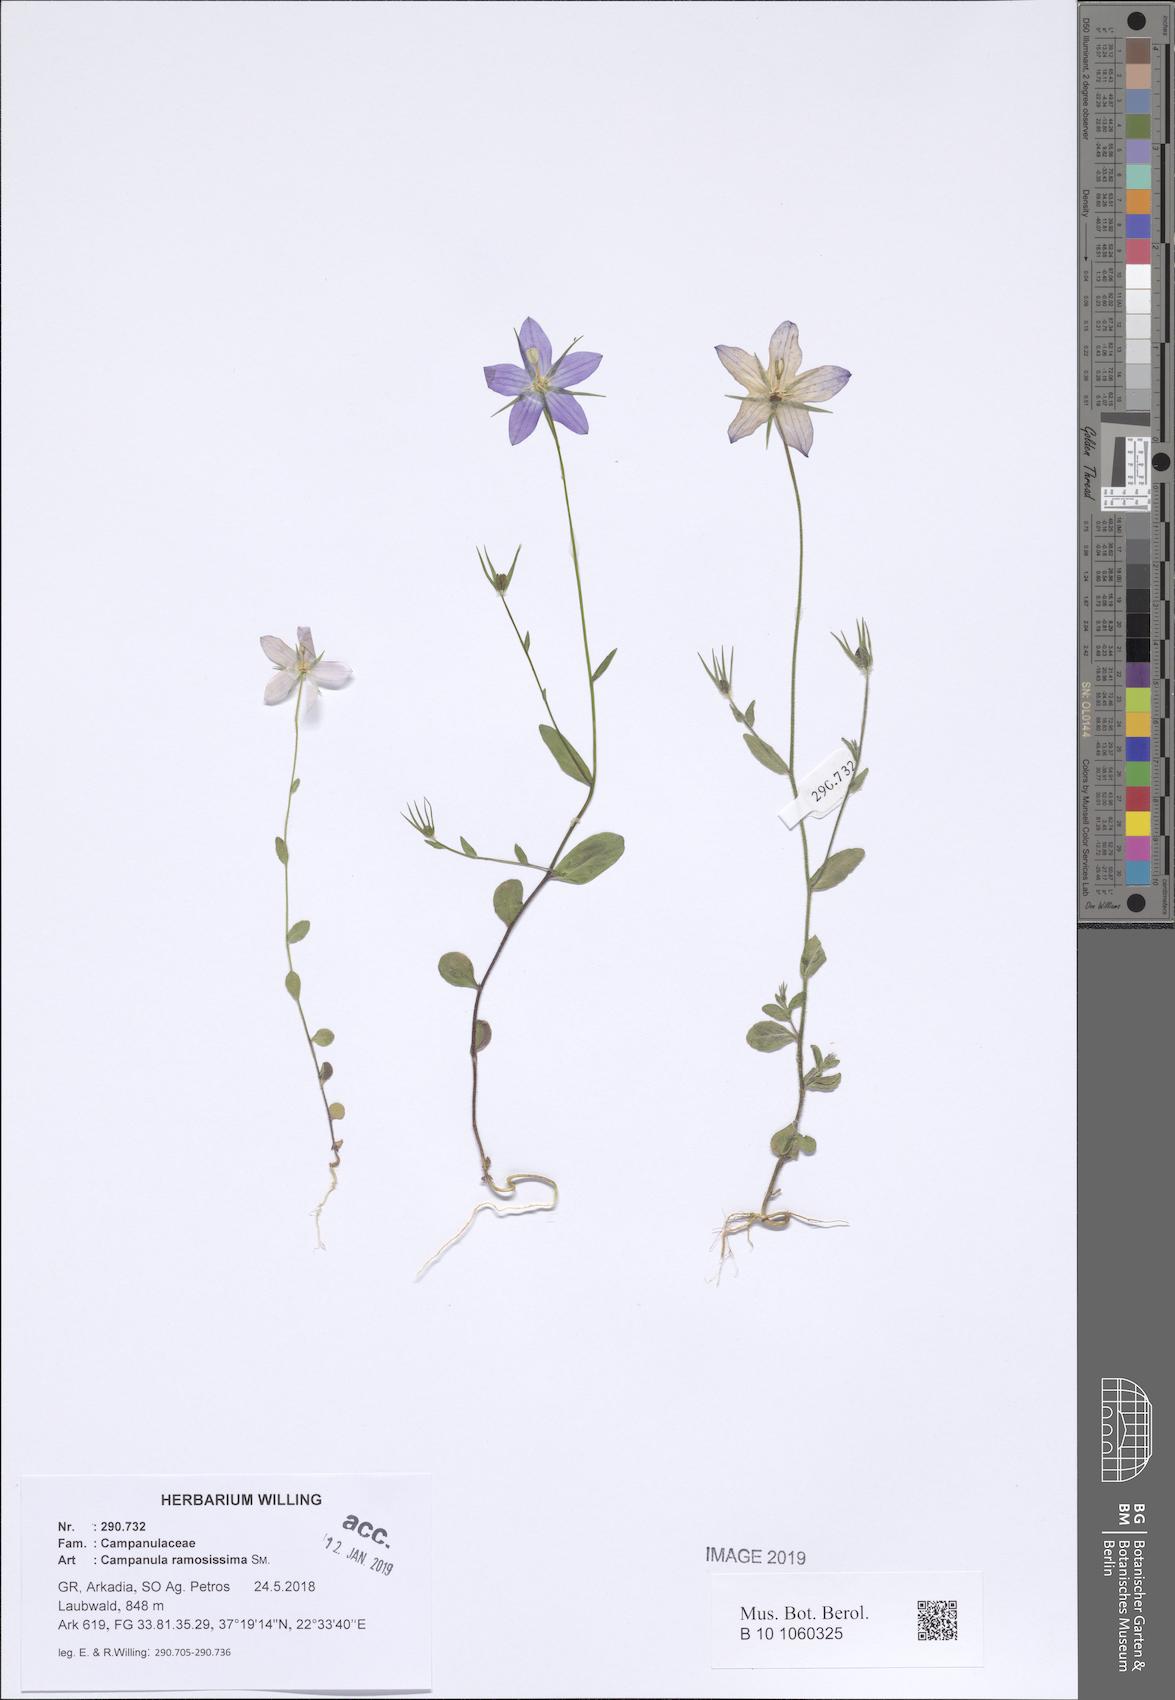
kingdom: Plantae
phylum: Tracheophyta
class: Magnoliopsida
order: Asterales
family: Campanulaceae
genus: Campanula
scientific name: Campanula ramosissima
